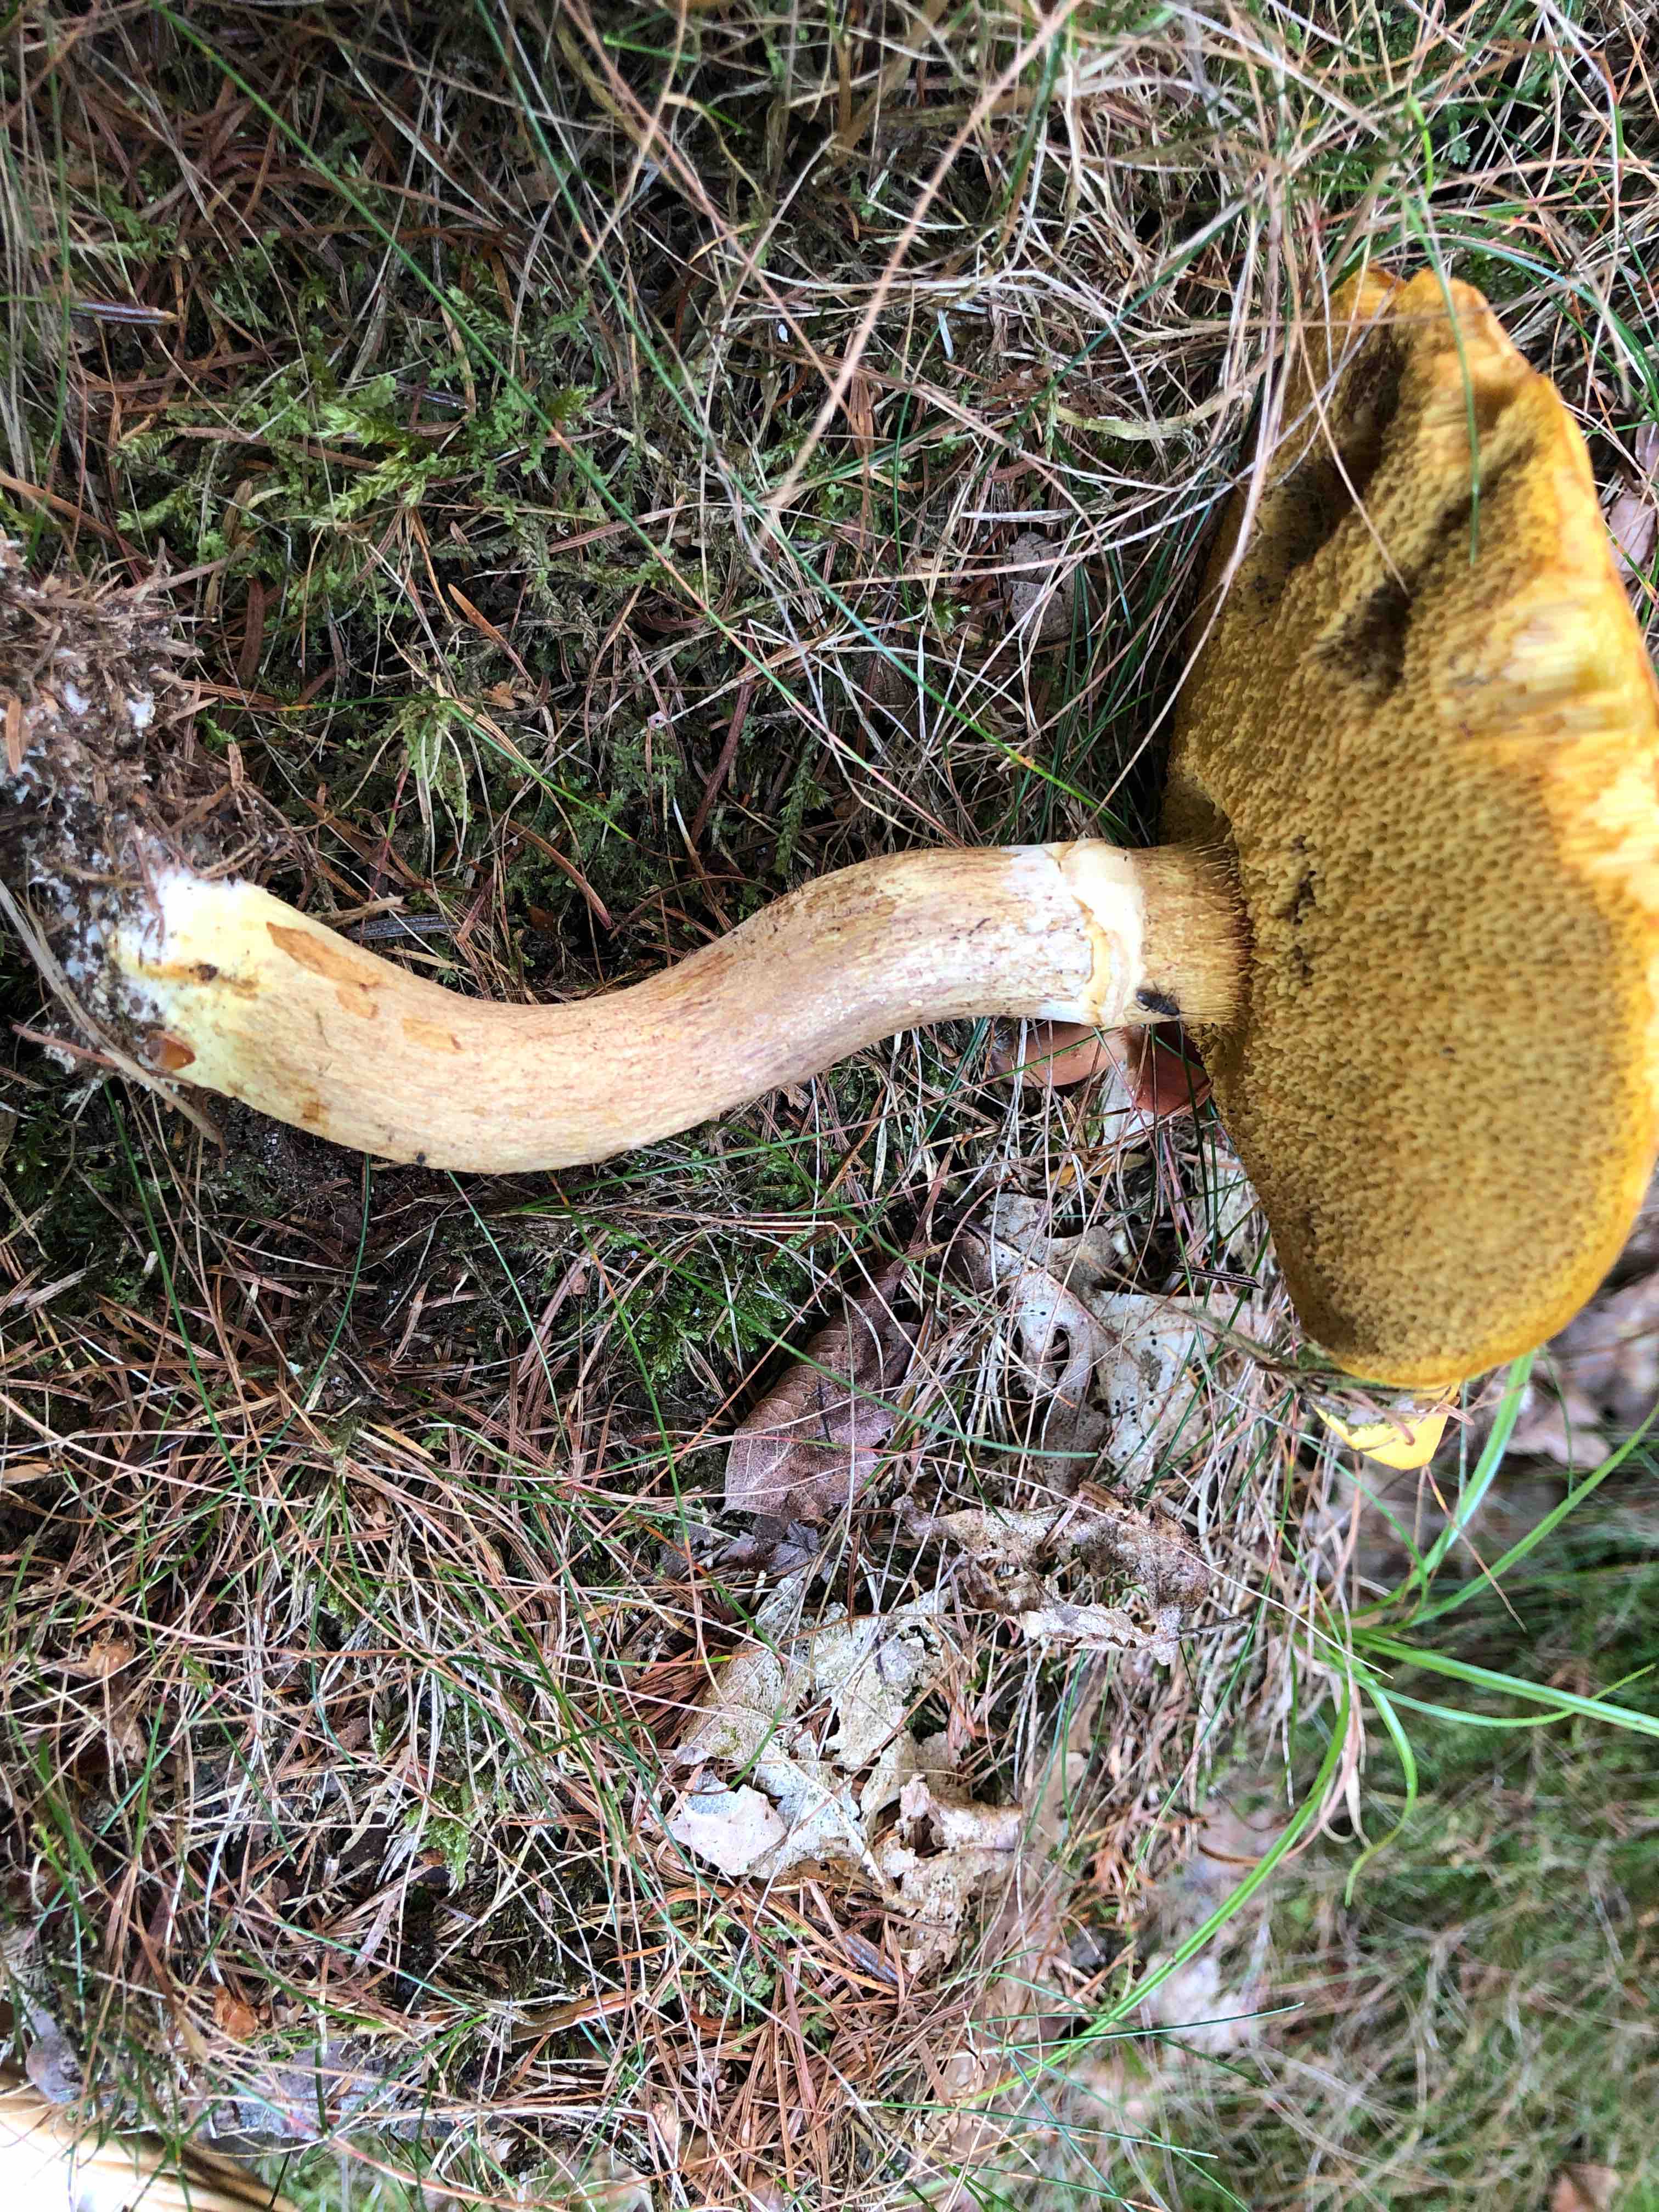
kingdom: Fungi
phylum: Basidiomycota
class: Agaricomycetes
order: Boletales
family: Suillaceae
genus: Suillus
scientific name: Suillus grevillei
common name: lærke-slimrørhat
